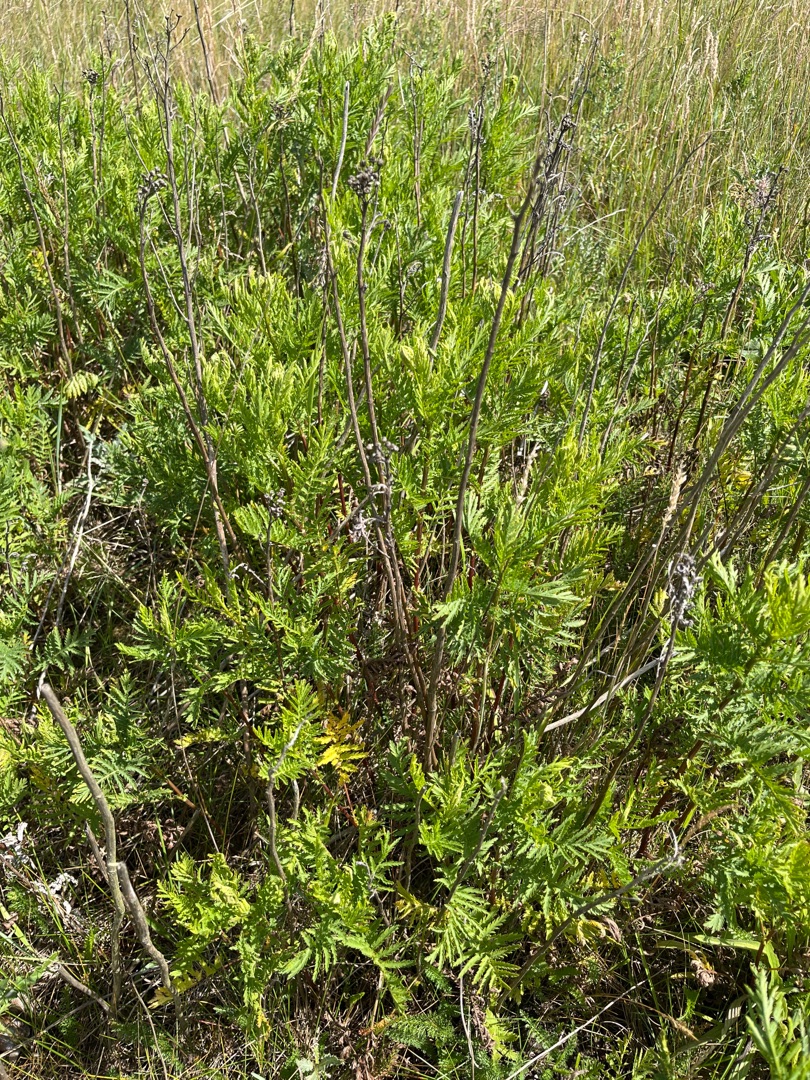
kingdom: Plantae
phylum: Tracheophyta
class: Magnoliopsida
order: Asterales
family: Asteraceae
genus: Tanacetum
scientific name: Tanacetum vulgare
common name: Rejnfan
